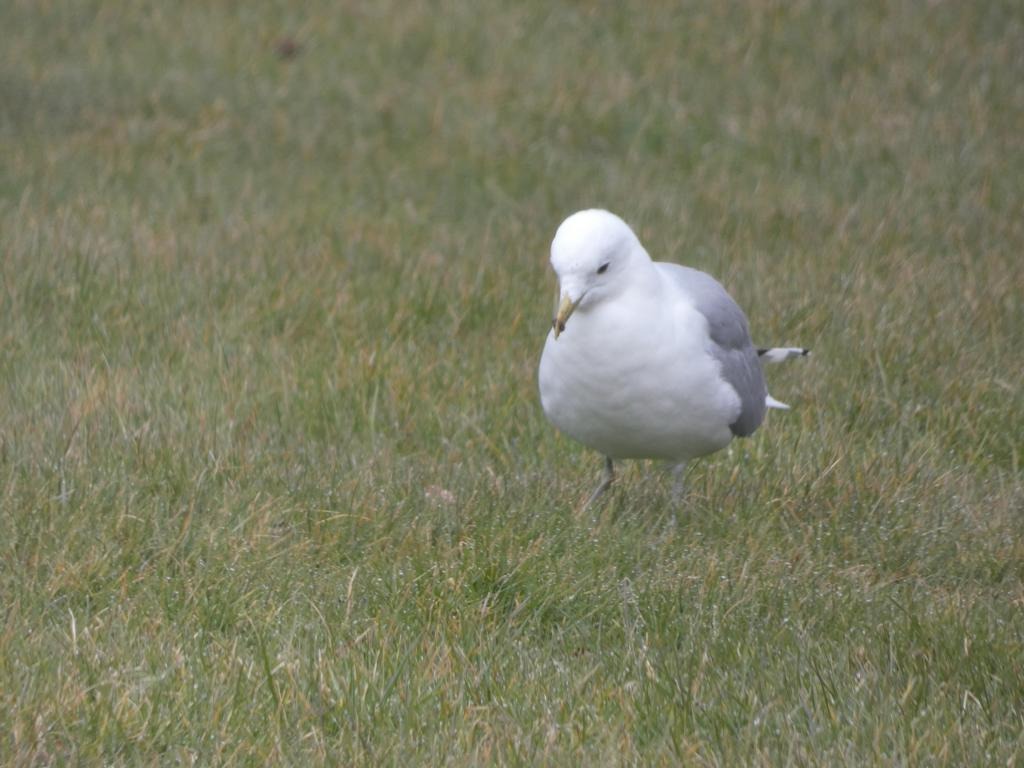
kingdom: Animalia
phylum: Chordata
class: Aves
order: Charadriiformes
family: Laridae
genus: Larus
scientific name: Larus canus
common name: Stormmåge
